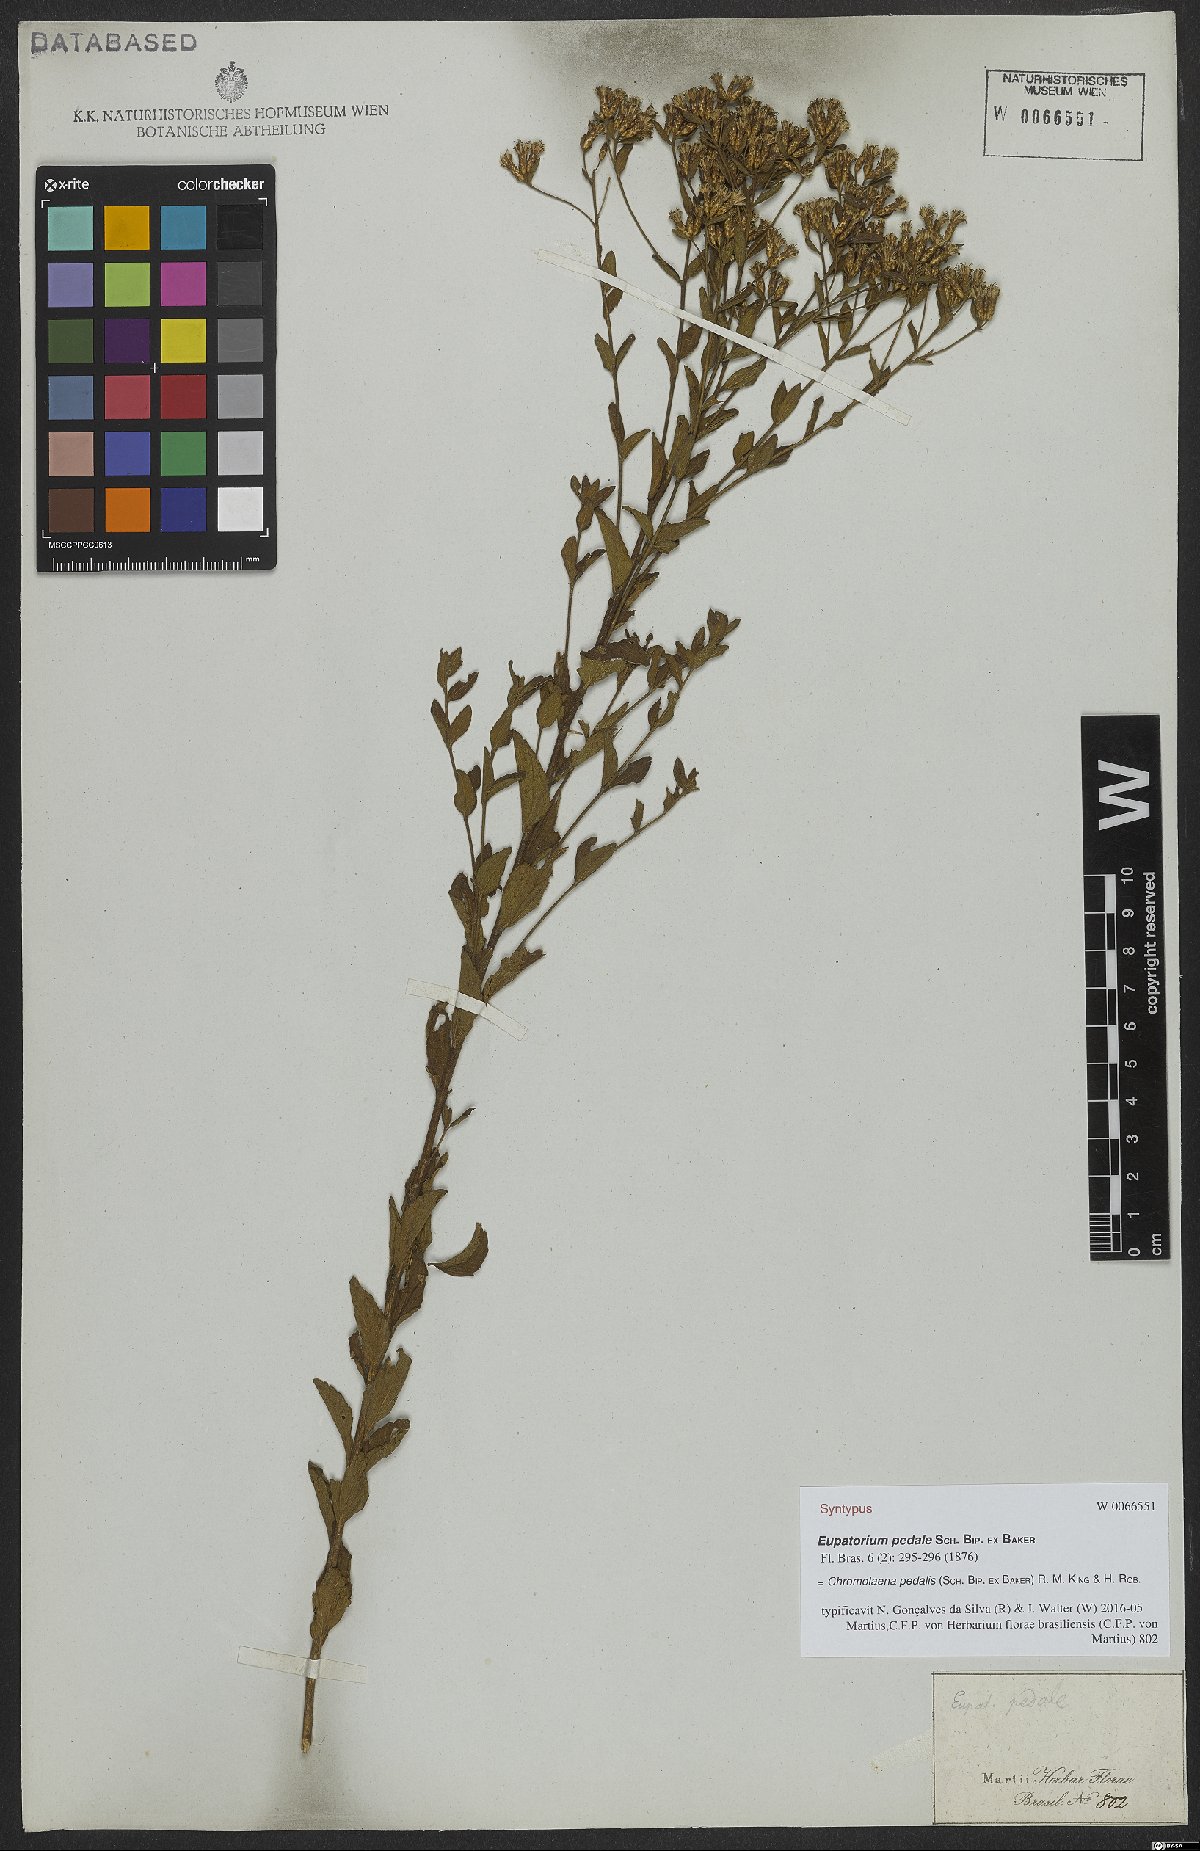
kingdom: Plantae
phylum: Tracheophyta
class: Magnoliopsida
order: Asterales
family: Asteraceae
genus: Chromolaena
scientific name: Chromolaena pedalis
